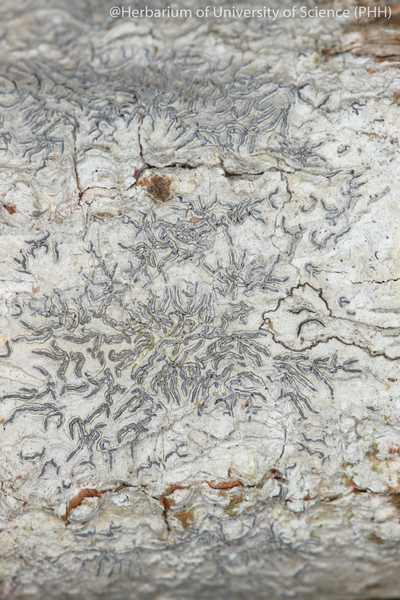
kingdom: Fungi
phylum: Ascomycota
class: Lecanoromycetes
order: Ostropales
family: Graphidaceae
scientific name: Graphidaceae
